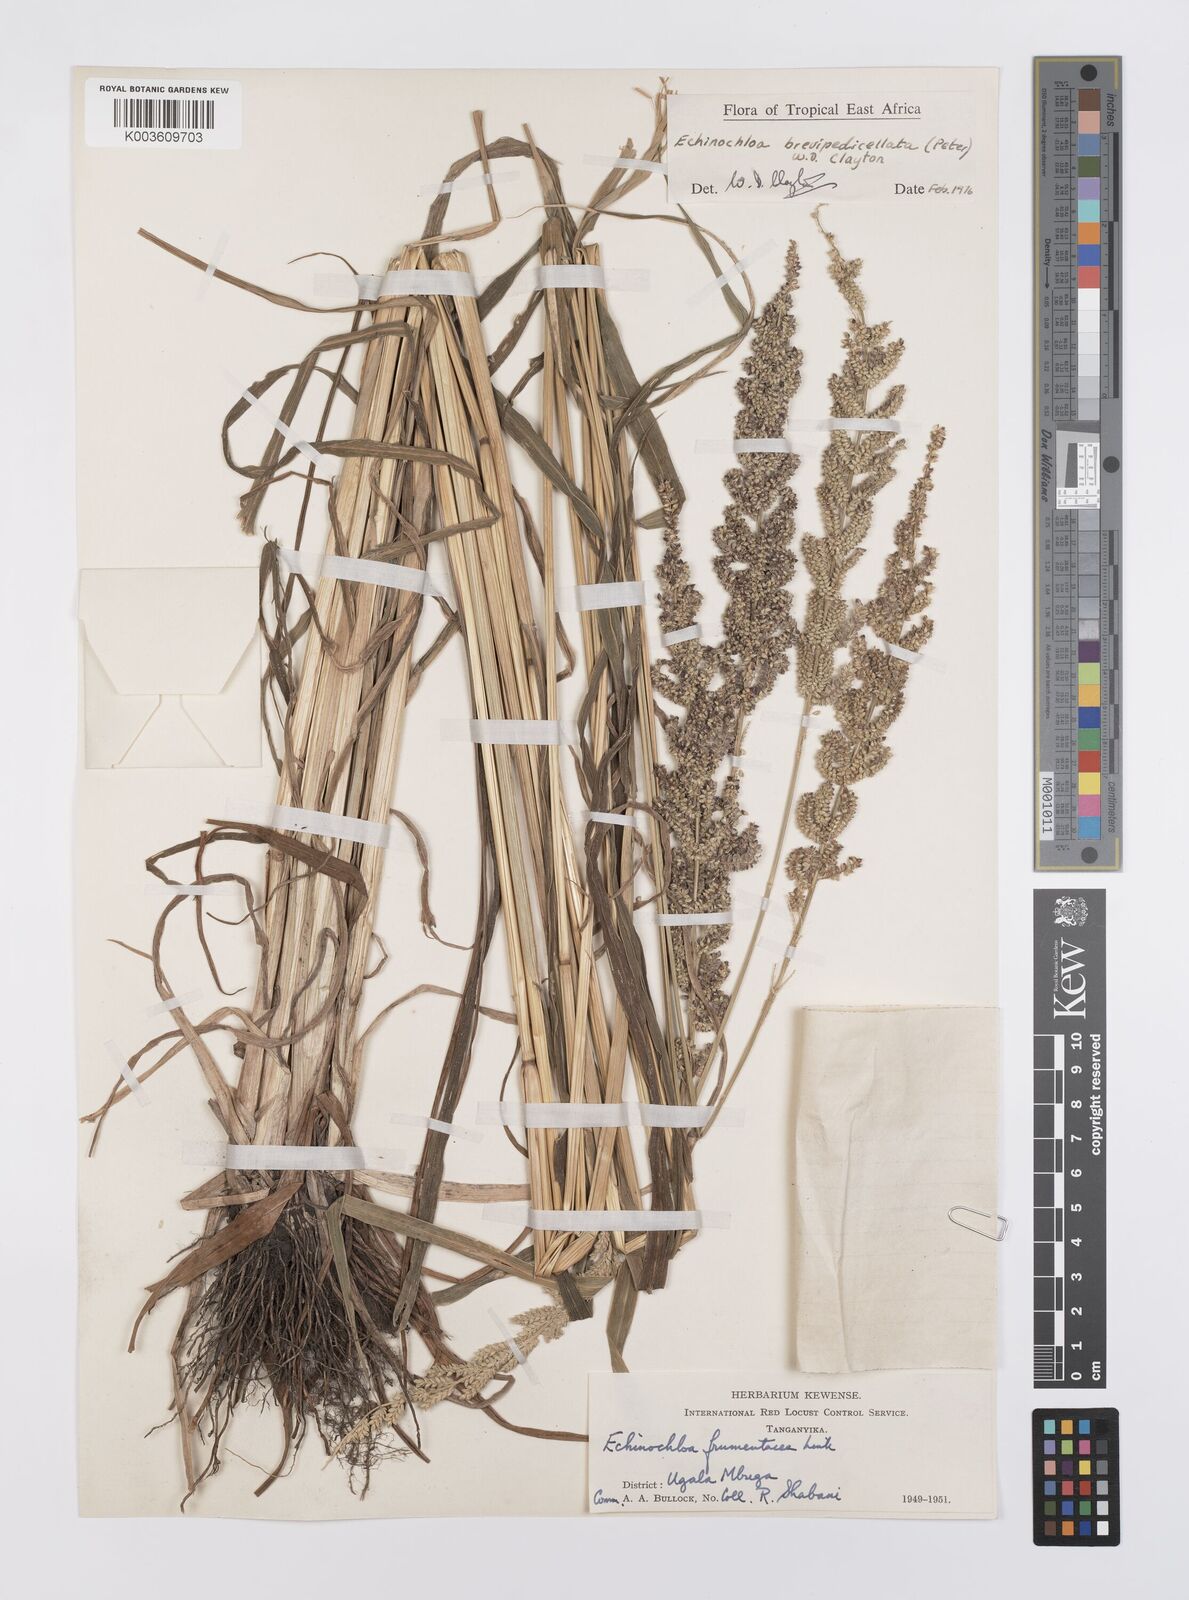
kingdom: Plantae
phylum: Tracheophyta
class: Liliopsida
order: Poales
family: Poaceae
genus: Echinochloa
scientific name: Echinochloa brevipedicellata
